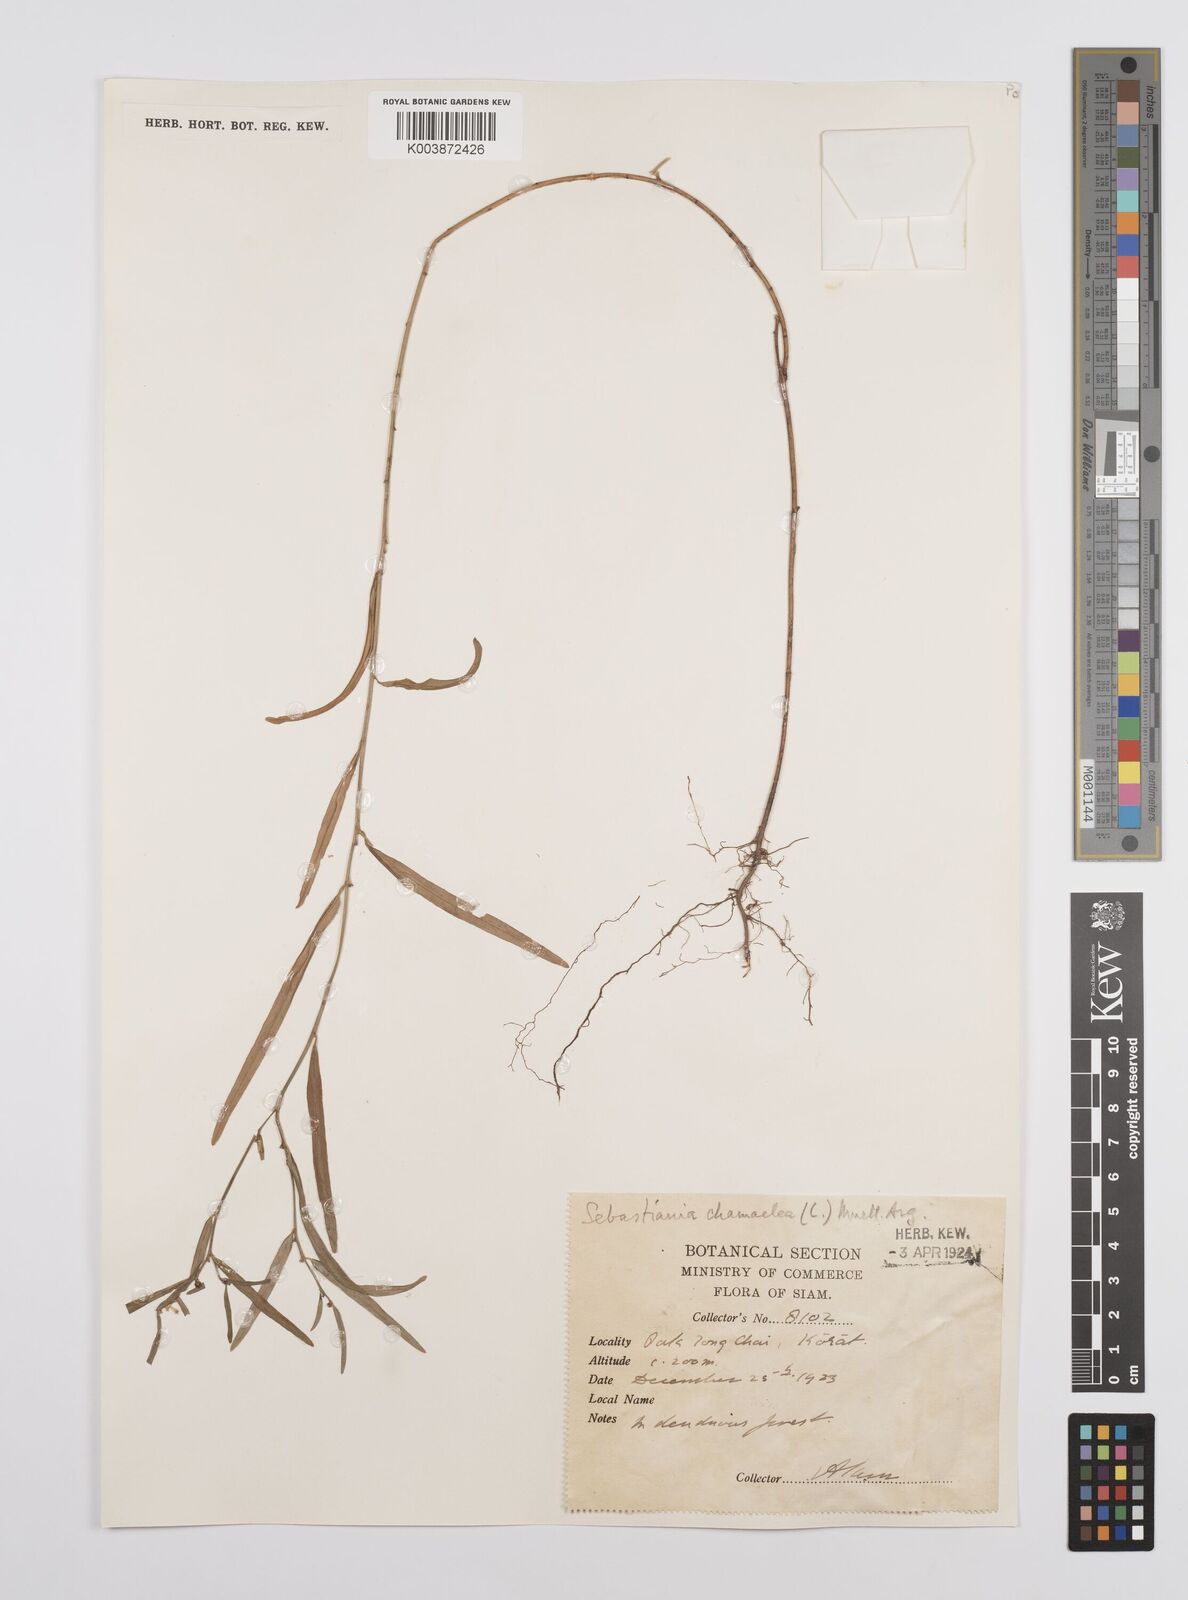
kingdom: Plantae
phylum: Tracheophyta
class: Magnoliopsida
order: Malpighiales
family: Euphorbiaceae
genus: Microstachys
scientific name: Microstachys chamaelea
